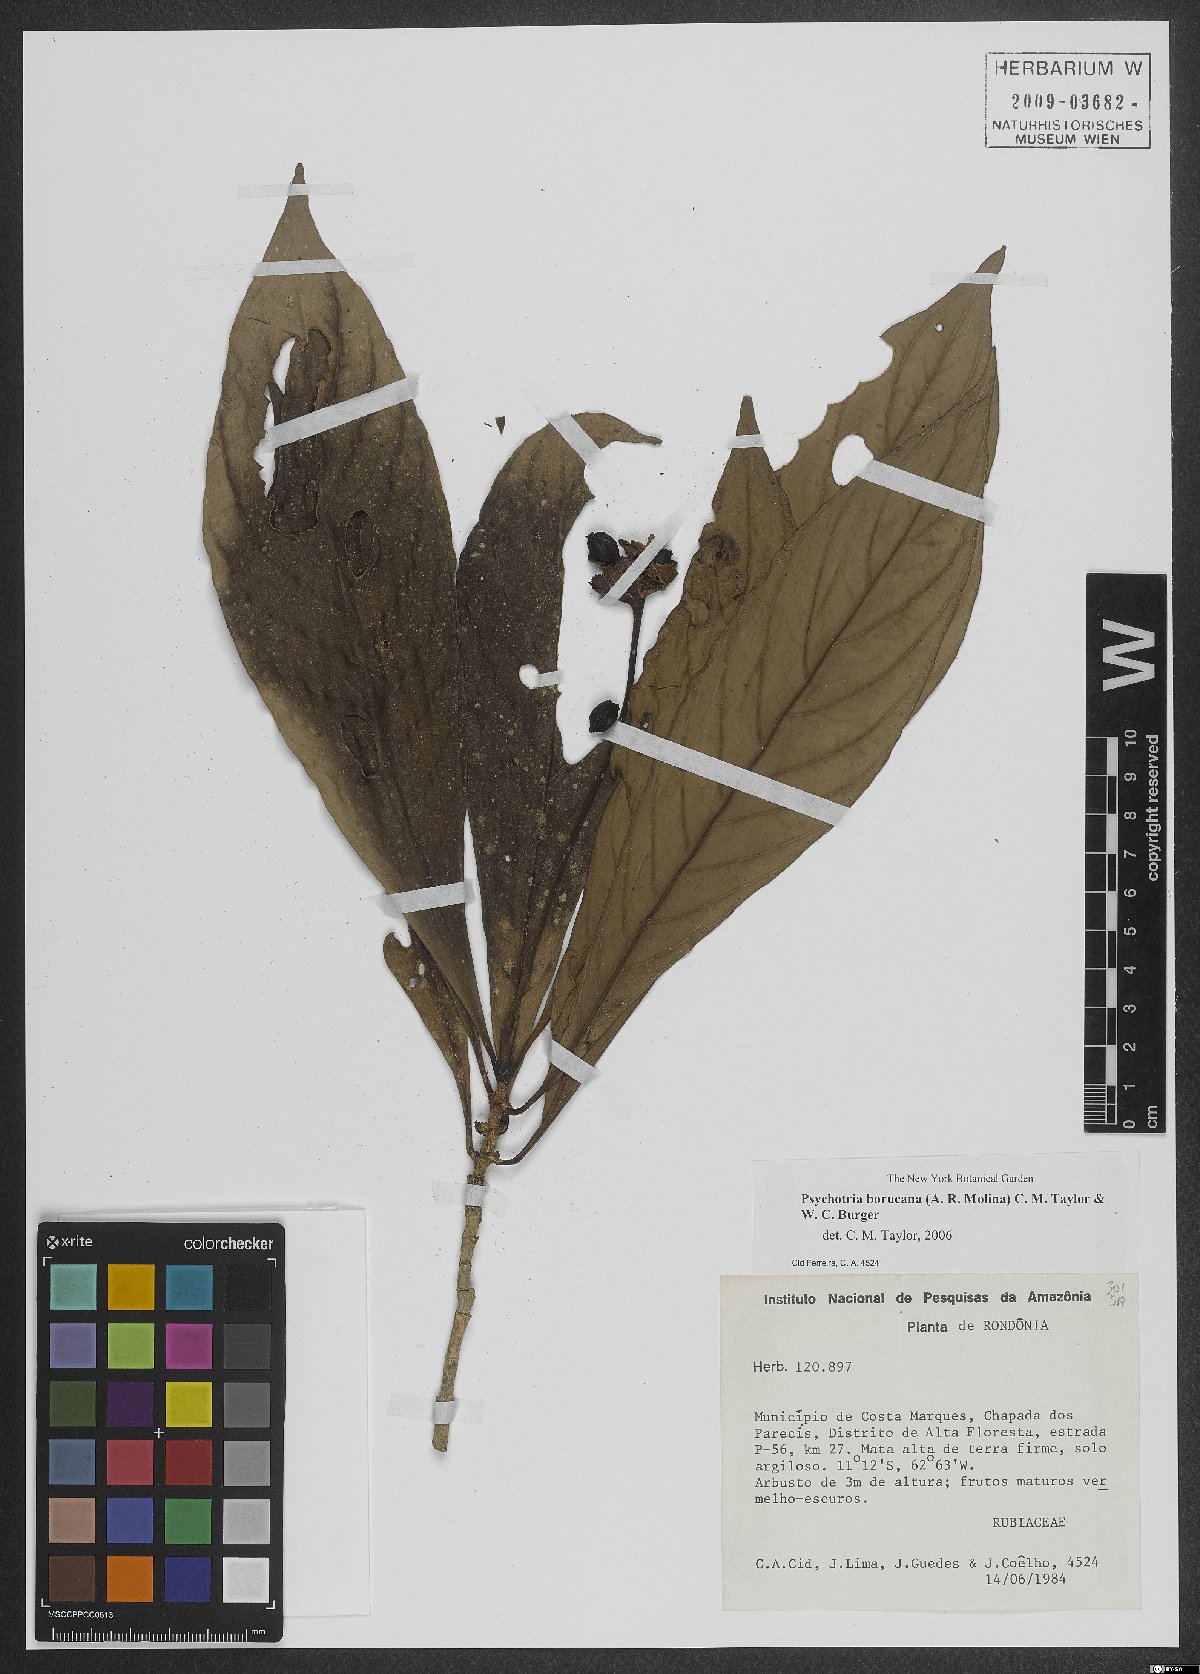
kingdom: Plantae
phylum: Tracheophyta
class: Magnoliopsida
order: Gentianales
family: Rubiaceae
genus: Psychotria
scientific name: Psychotria borjensis
